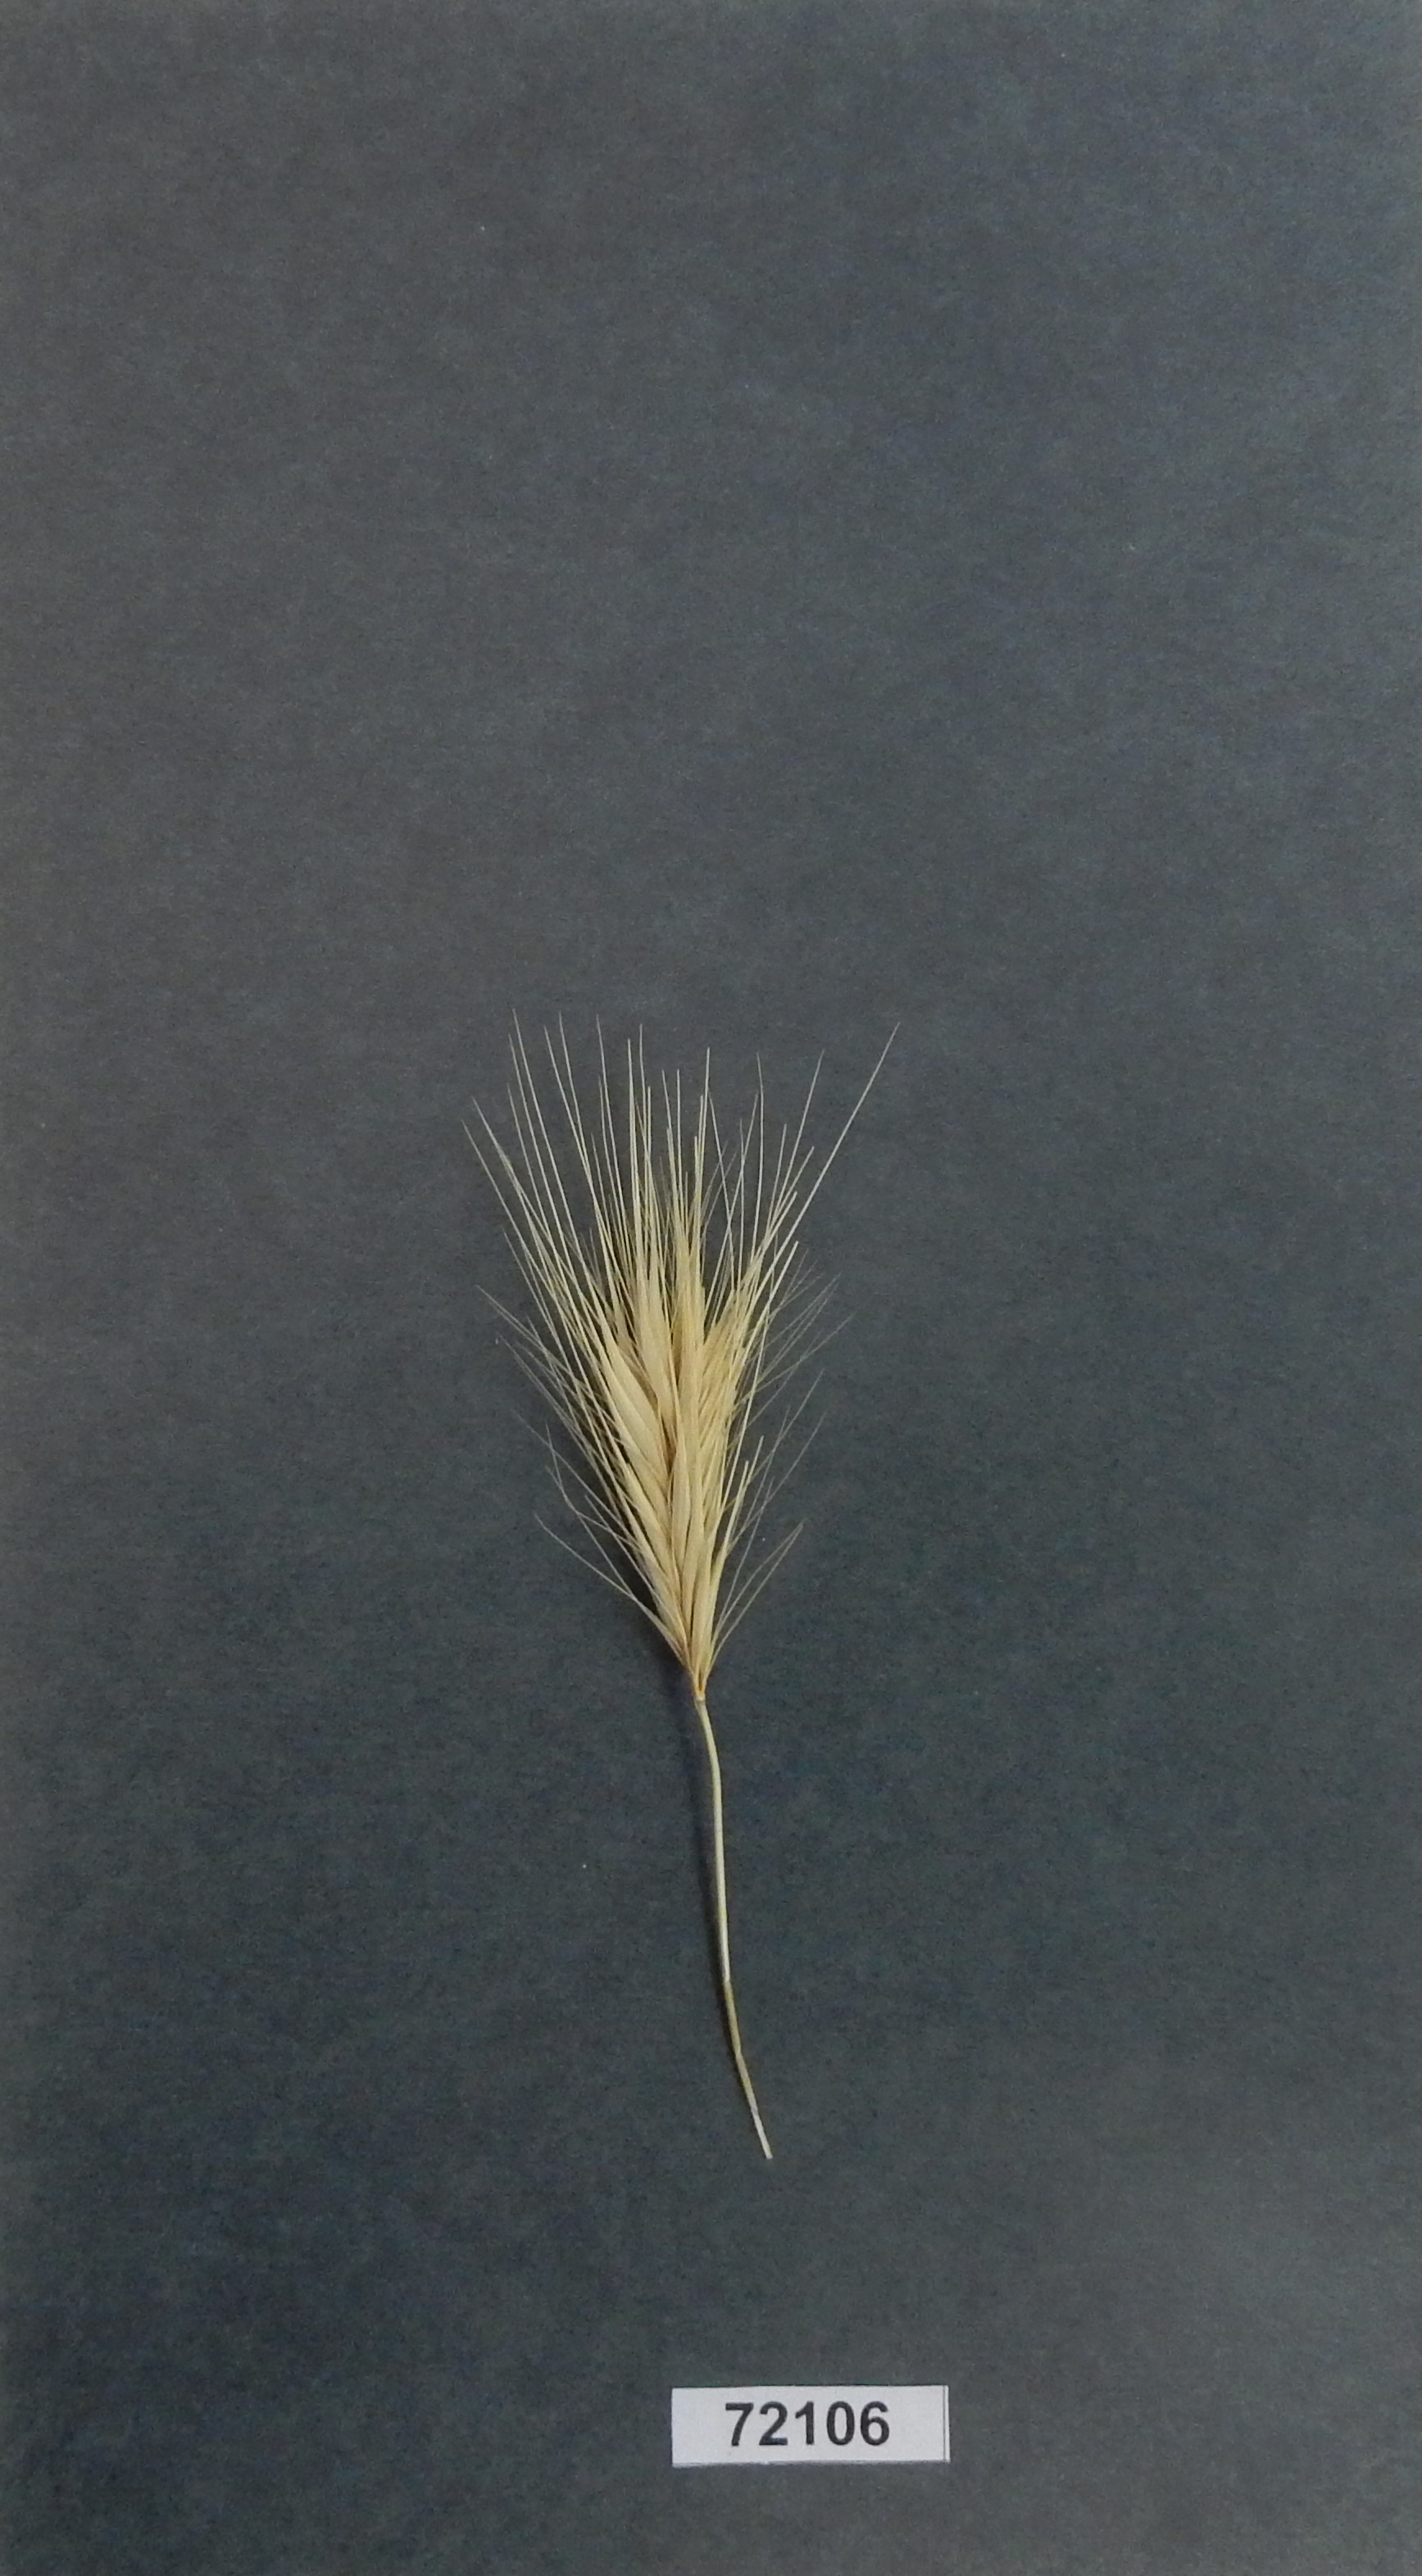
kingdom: Plantae
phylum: Tracheophyta
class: Liliopsida
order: Poales
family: Poaceae
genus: Hordeum
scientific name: Hordeum murinum
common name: Wall Barley
